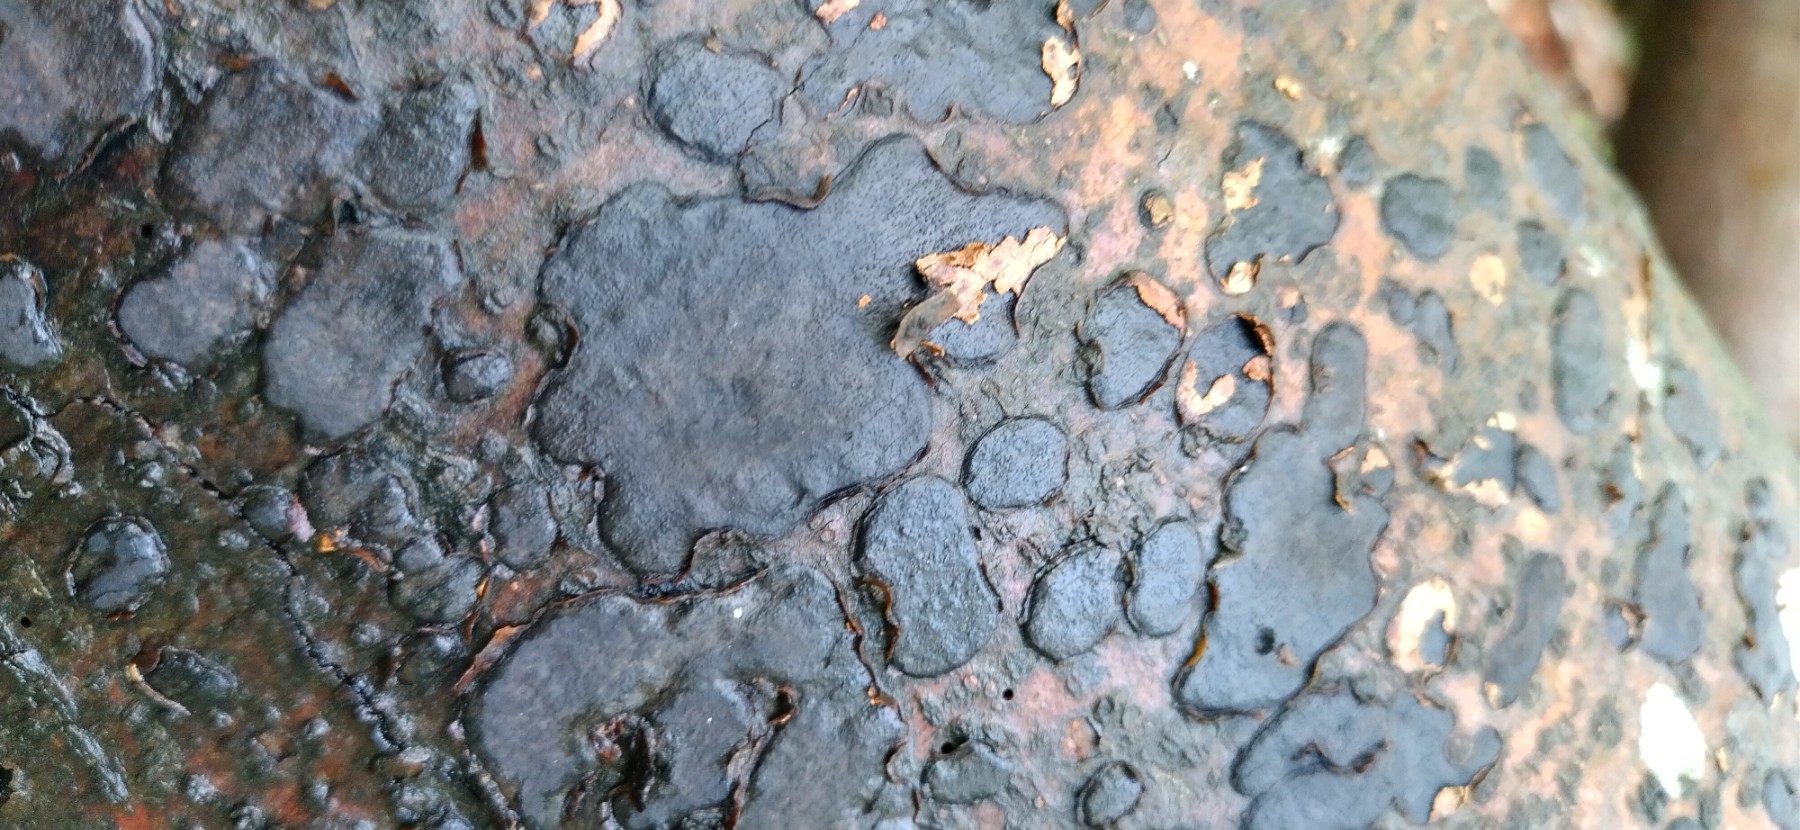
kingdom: Fungi
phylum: Ascomycota
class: Sordariomycetes
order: Xylariales
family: Graphostromataceae
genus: Biscogniauxia
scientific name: Biscogniauxia nummularia
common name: bøge-kulskive
